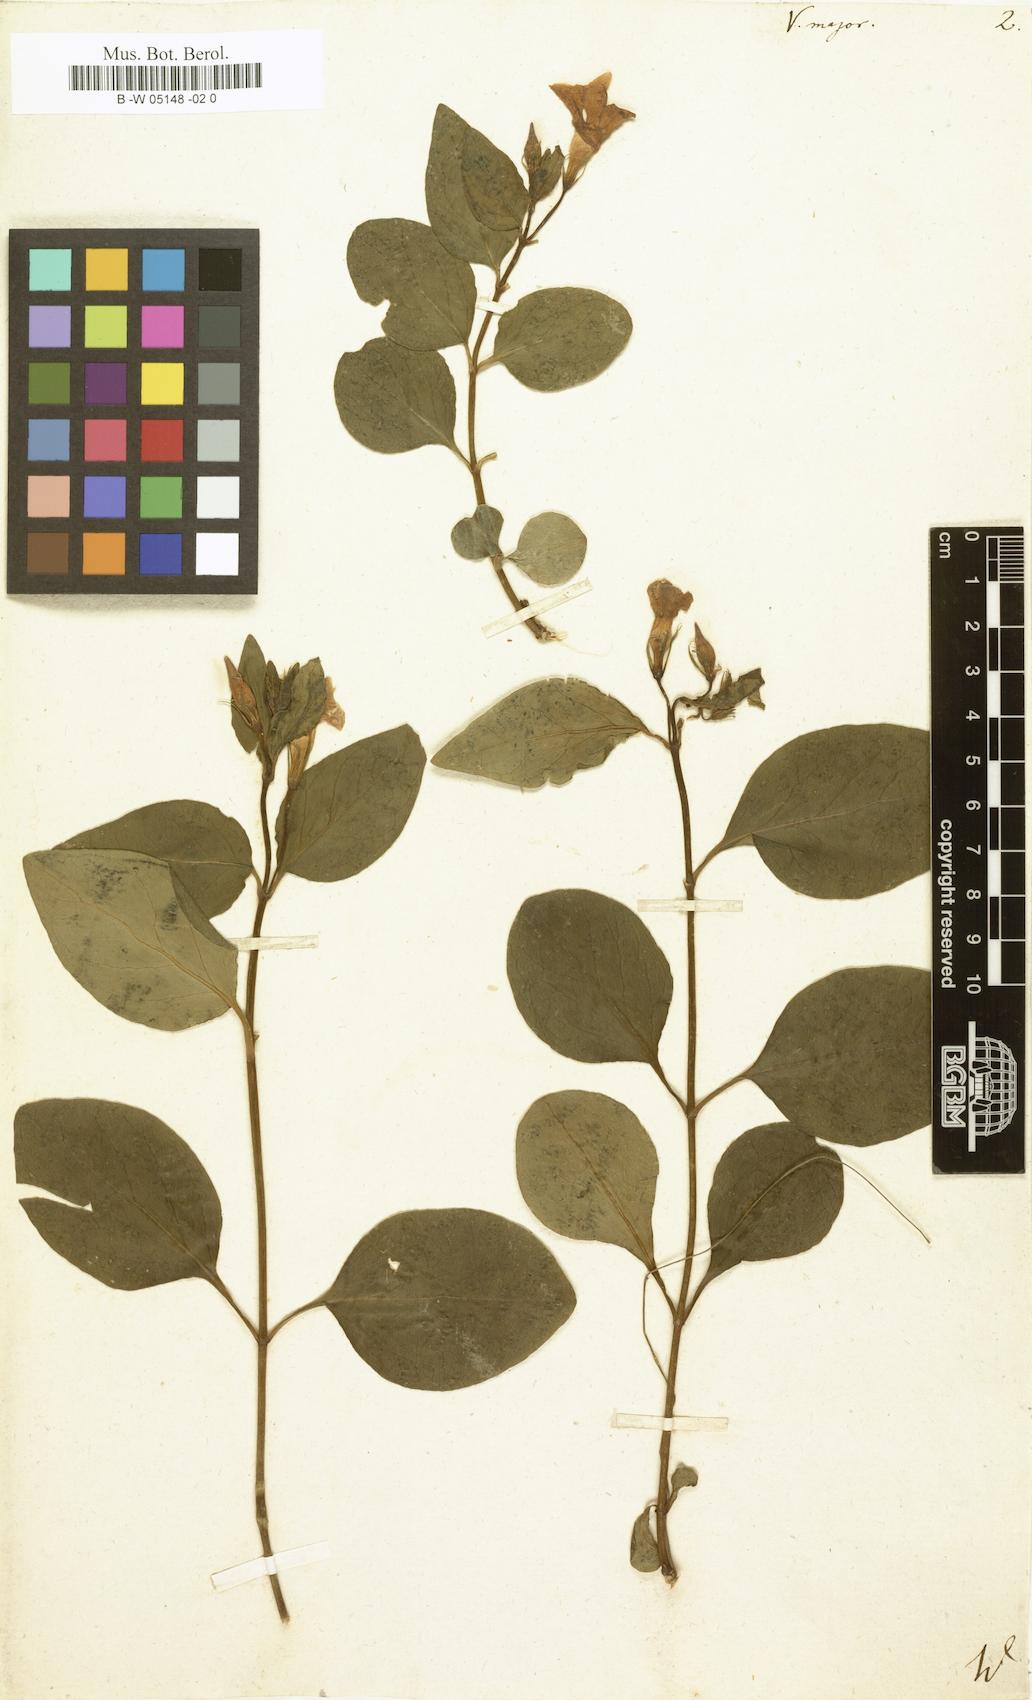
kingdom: Plantae
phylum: Tracheophyta
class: Magnoliopsida
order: Gentianales
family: Apocynaceae
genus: Vinca
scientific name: Vinca major
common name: Greater periwinkle
